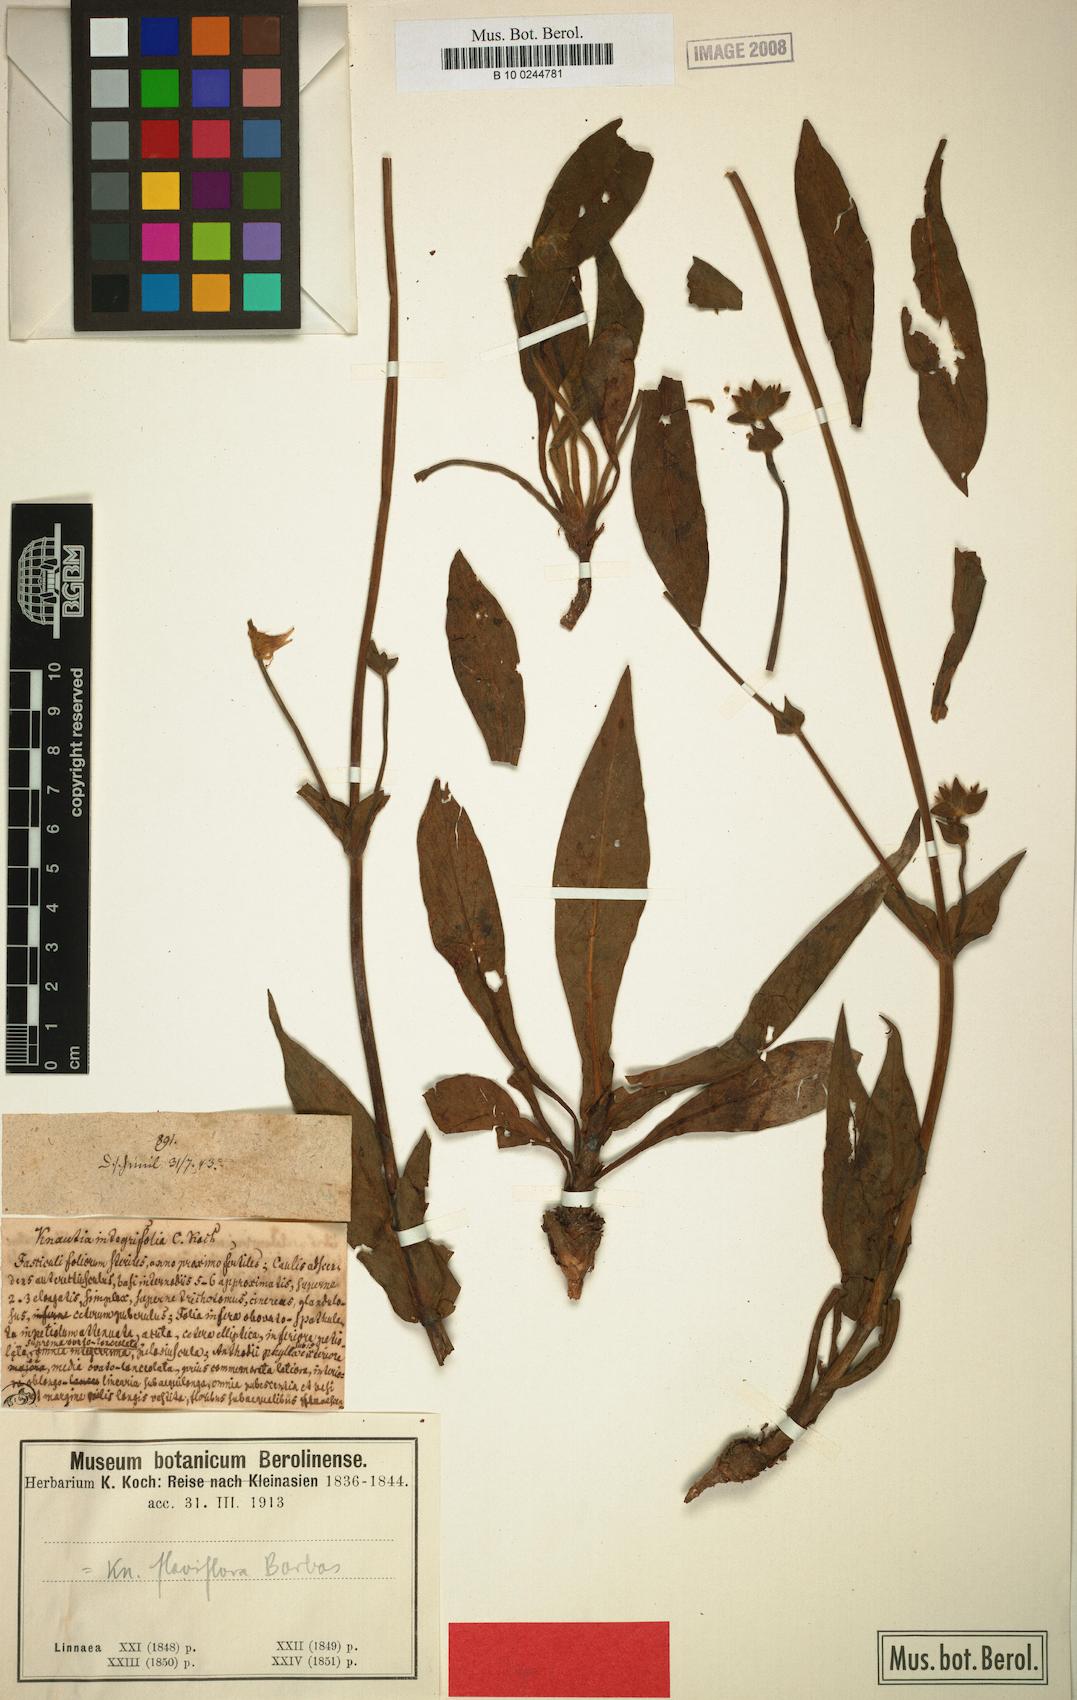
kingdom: Plantae
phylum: Tracheophyta
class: Magnoliopsida
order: Dipsacales
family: Caprifoliaceae
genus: Knautia
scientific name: Knautia involucrata
